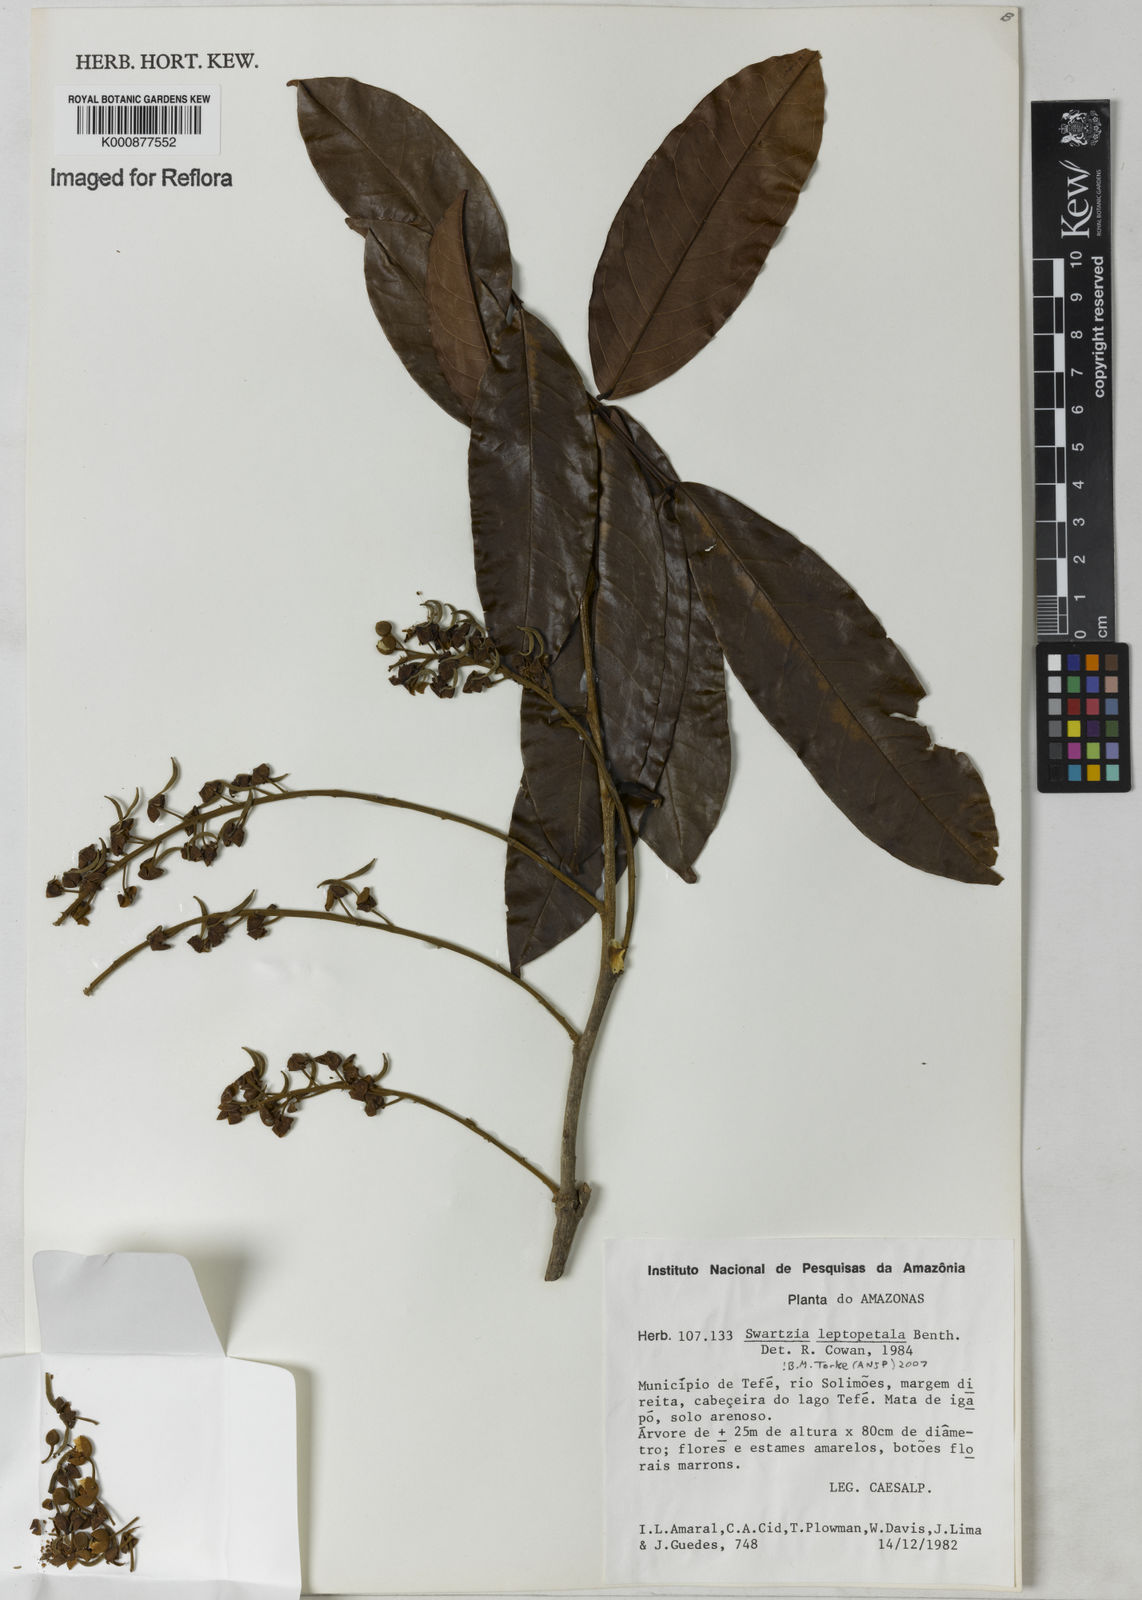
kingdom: Plantae
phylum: Tracheophyta
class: Magnoliopsida
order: Fabales
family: Fabaceae
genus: Swartzia
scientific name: Swartzia leptopetala
